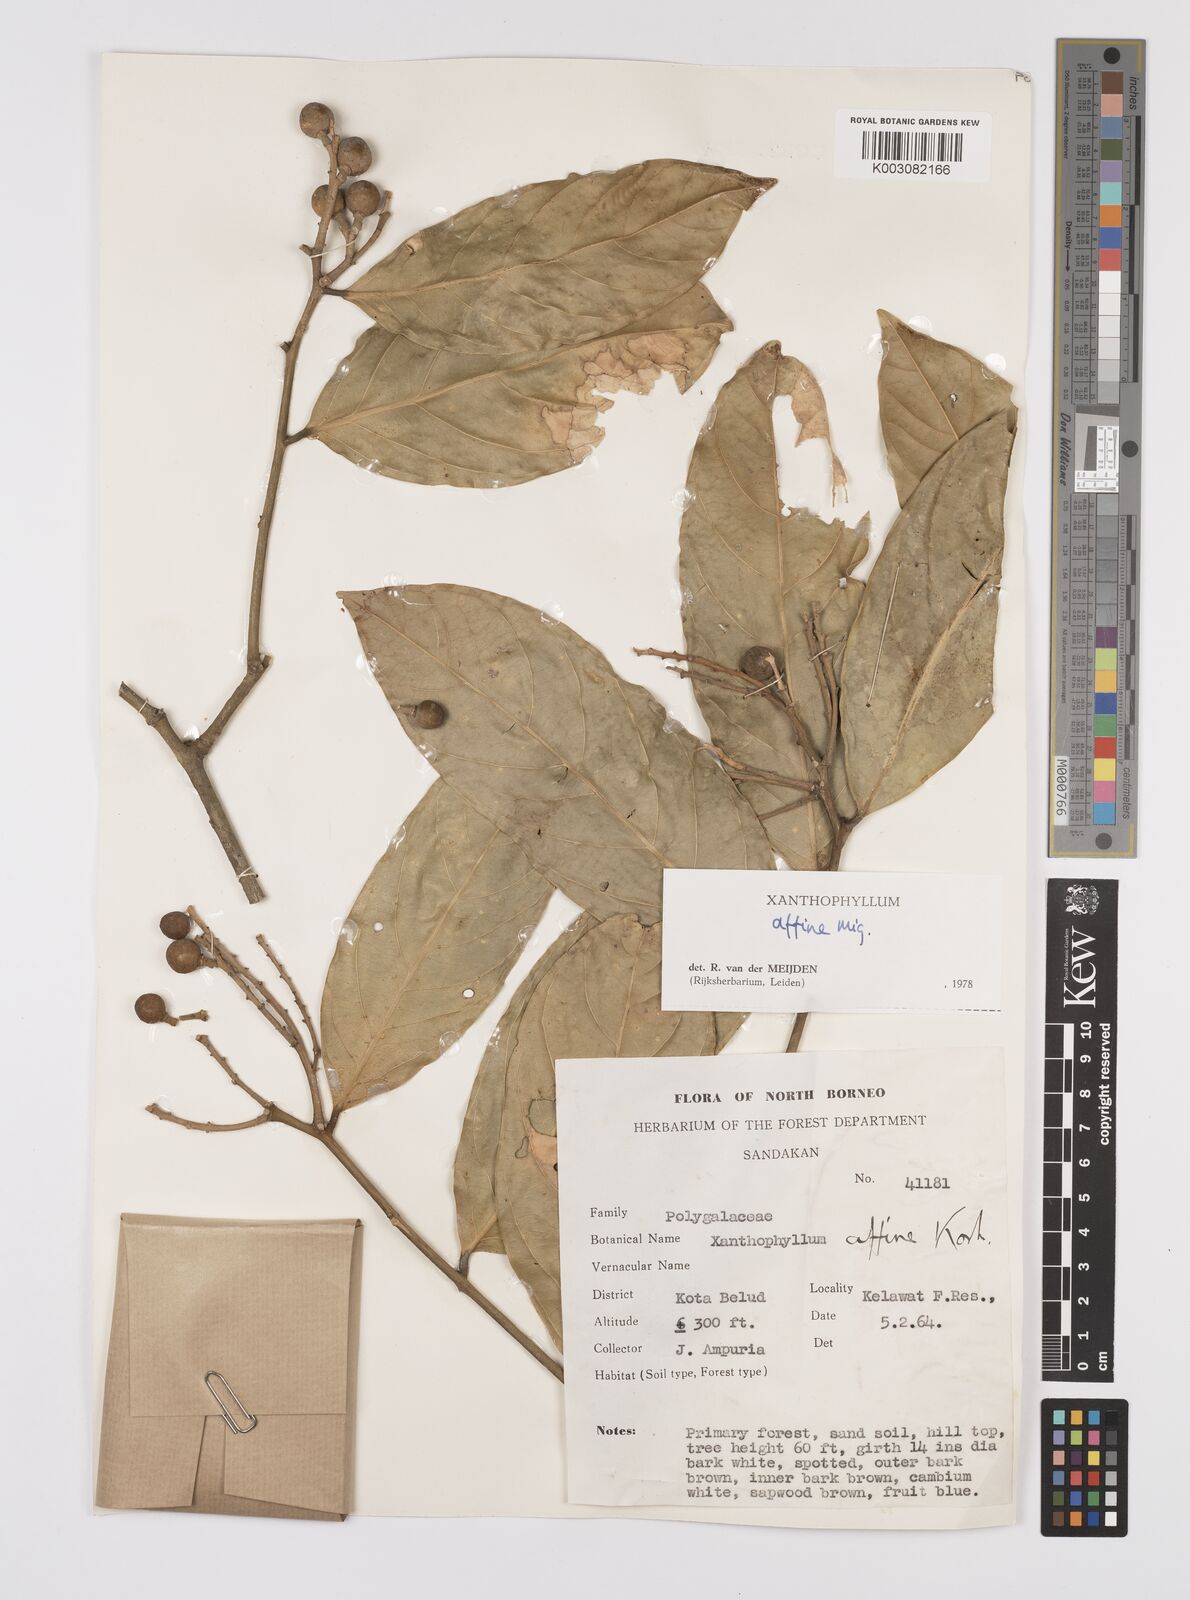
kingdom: Plantae
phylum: Tracheophyta
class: Magnoliopsida
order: Fabales
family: Polygalaceae
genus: Xanthophyllum
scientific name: Xanthophyllum flavescens
